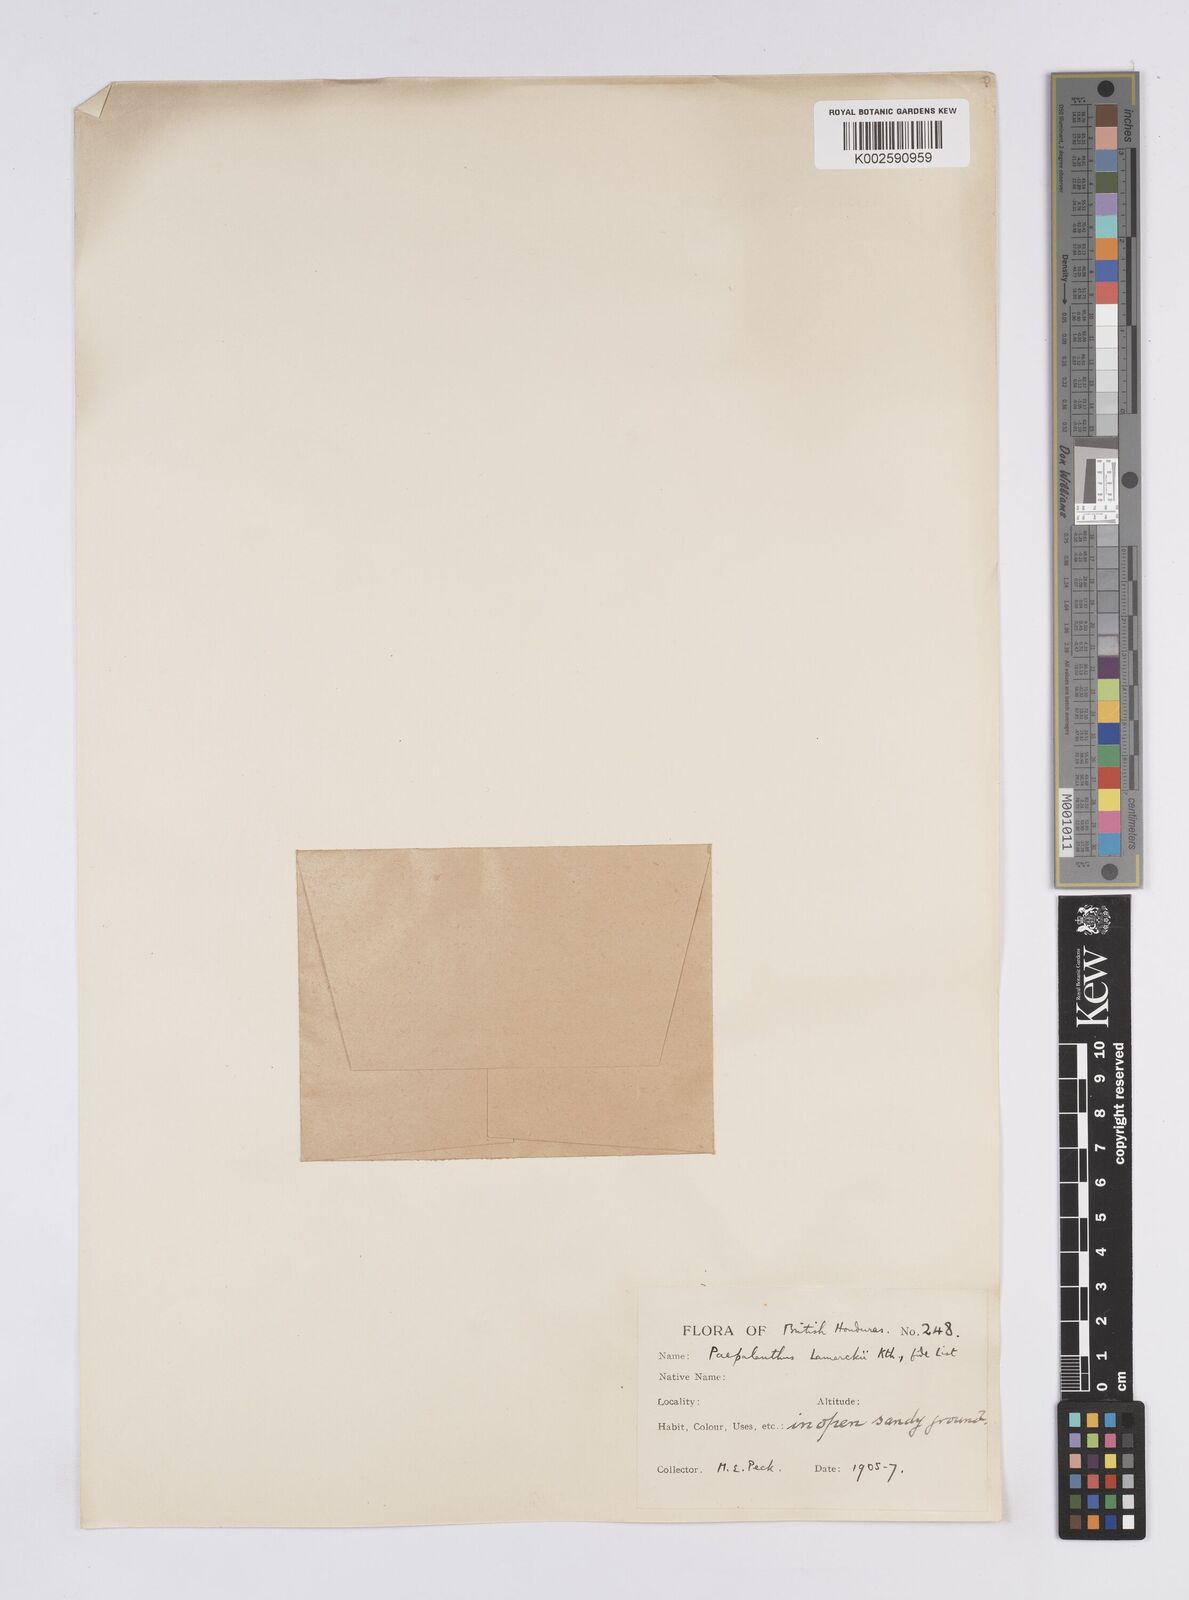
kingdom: Plantae
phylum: Tracheophyta
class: Liliopsida
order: Poales
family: Eriocaulaceae
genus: Paepalanthus
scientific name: Paepalanthus lamarckii
